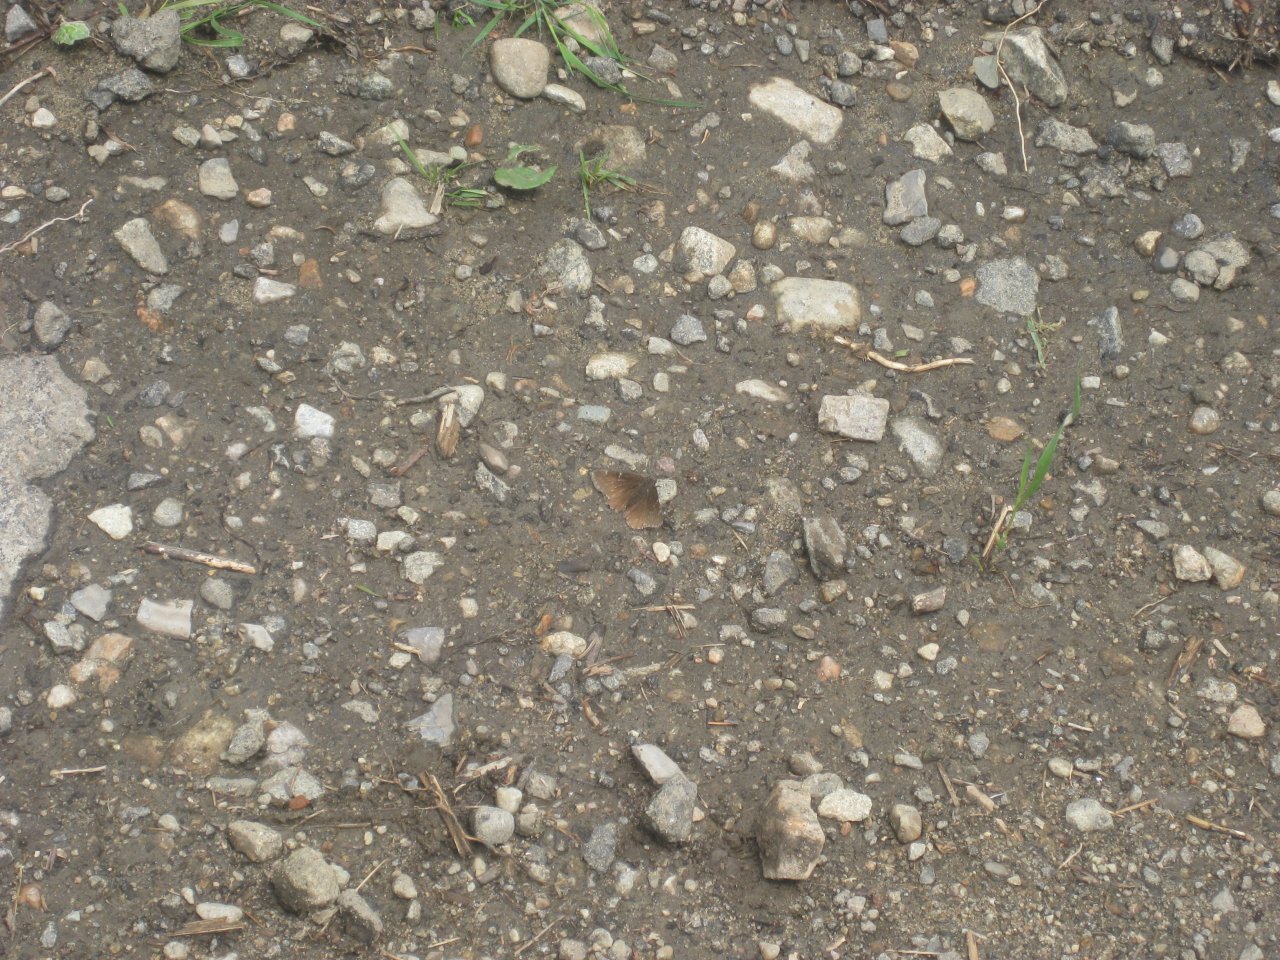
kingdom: Animalia
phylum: Arthropoda
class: Insecta
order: Lepidoptera
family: Hesperiidae
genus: Mastor
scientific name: Mastor vialis
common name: Common Roadside-Skipper
